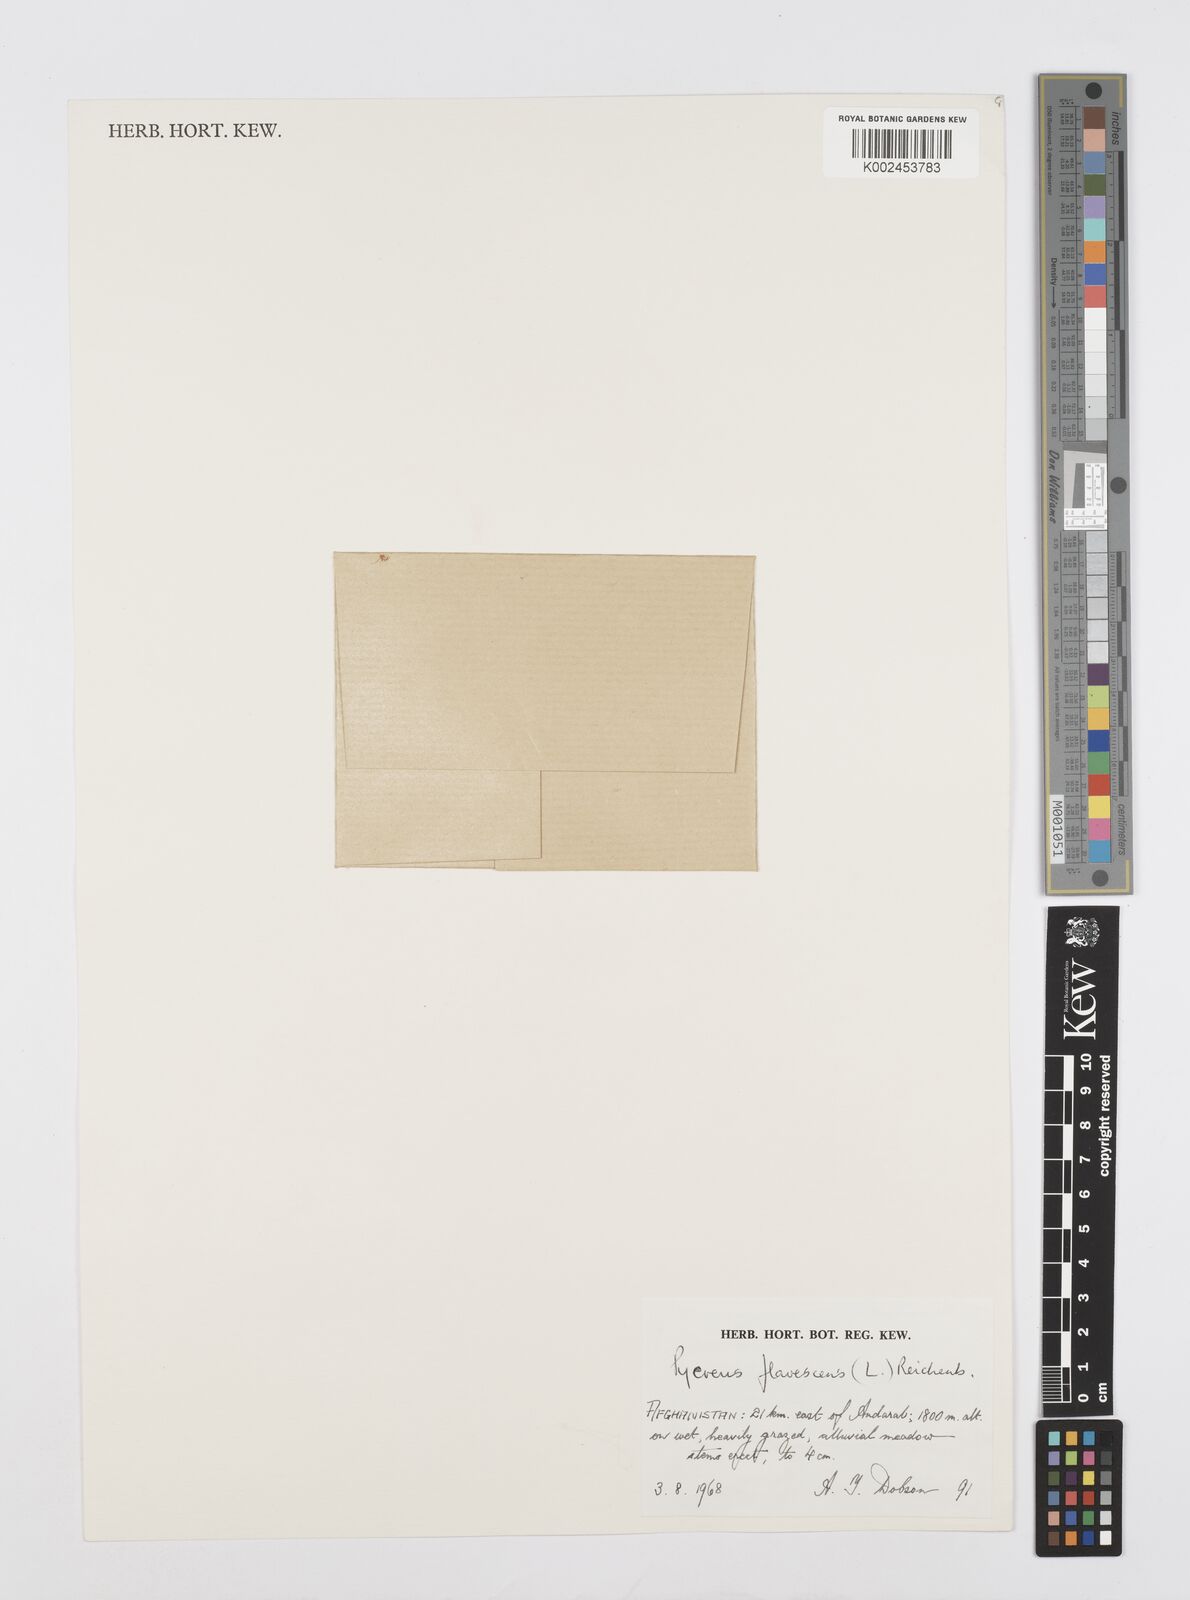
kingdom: Plantae
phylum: Tracheophyta
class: Liliopsida
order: Poales
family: Cyperaceae
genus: Cyperus
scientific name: Cyperus flavescens
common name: Yellow galingale
